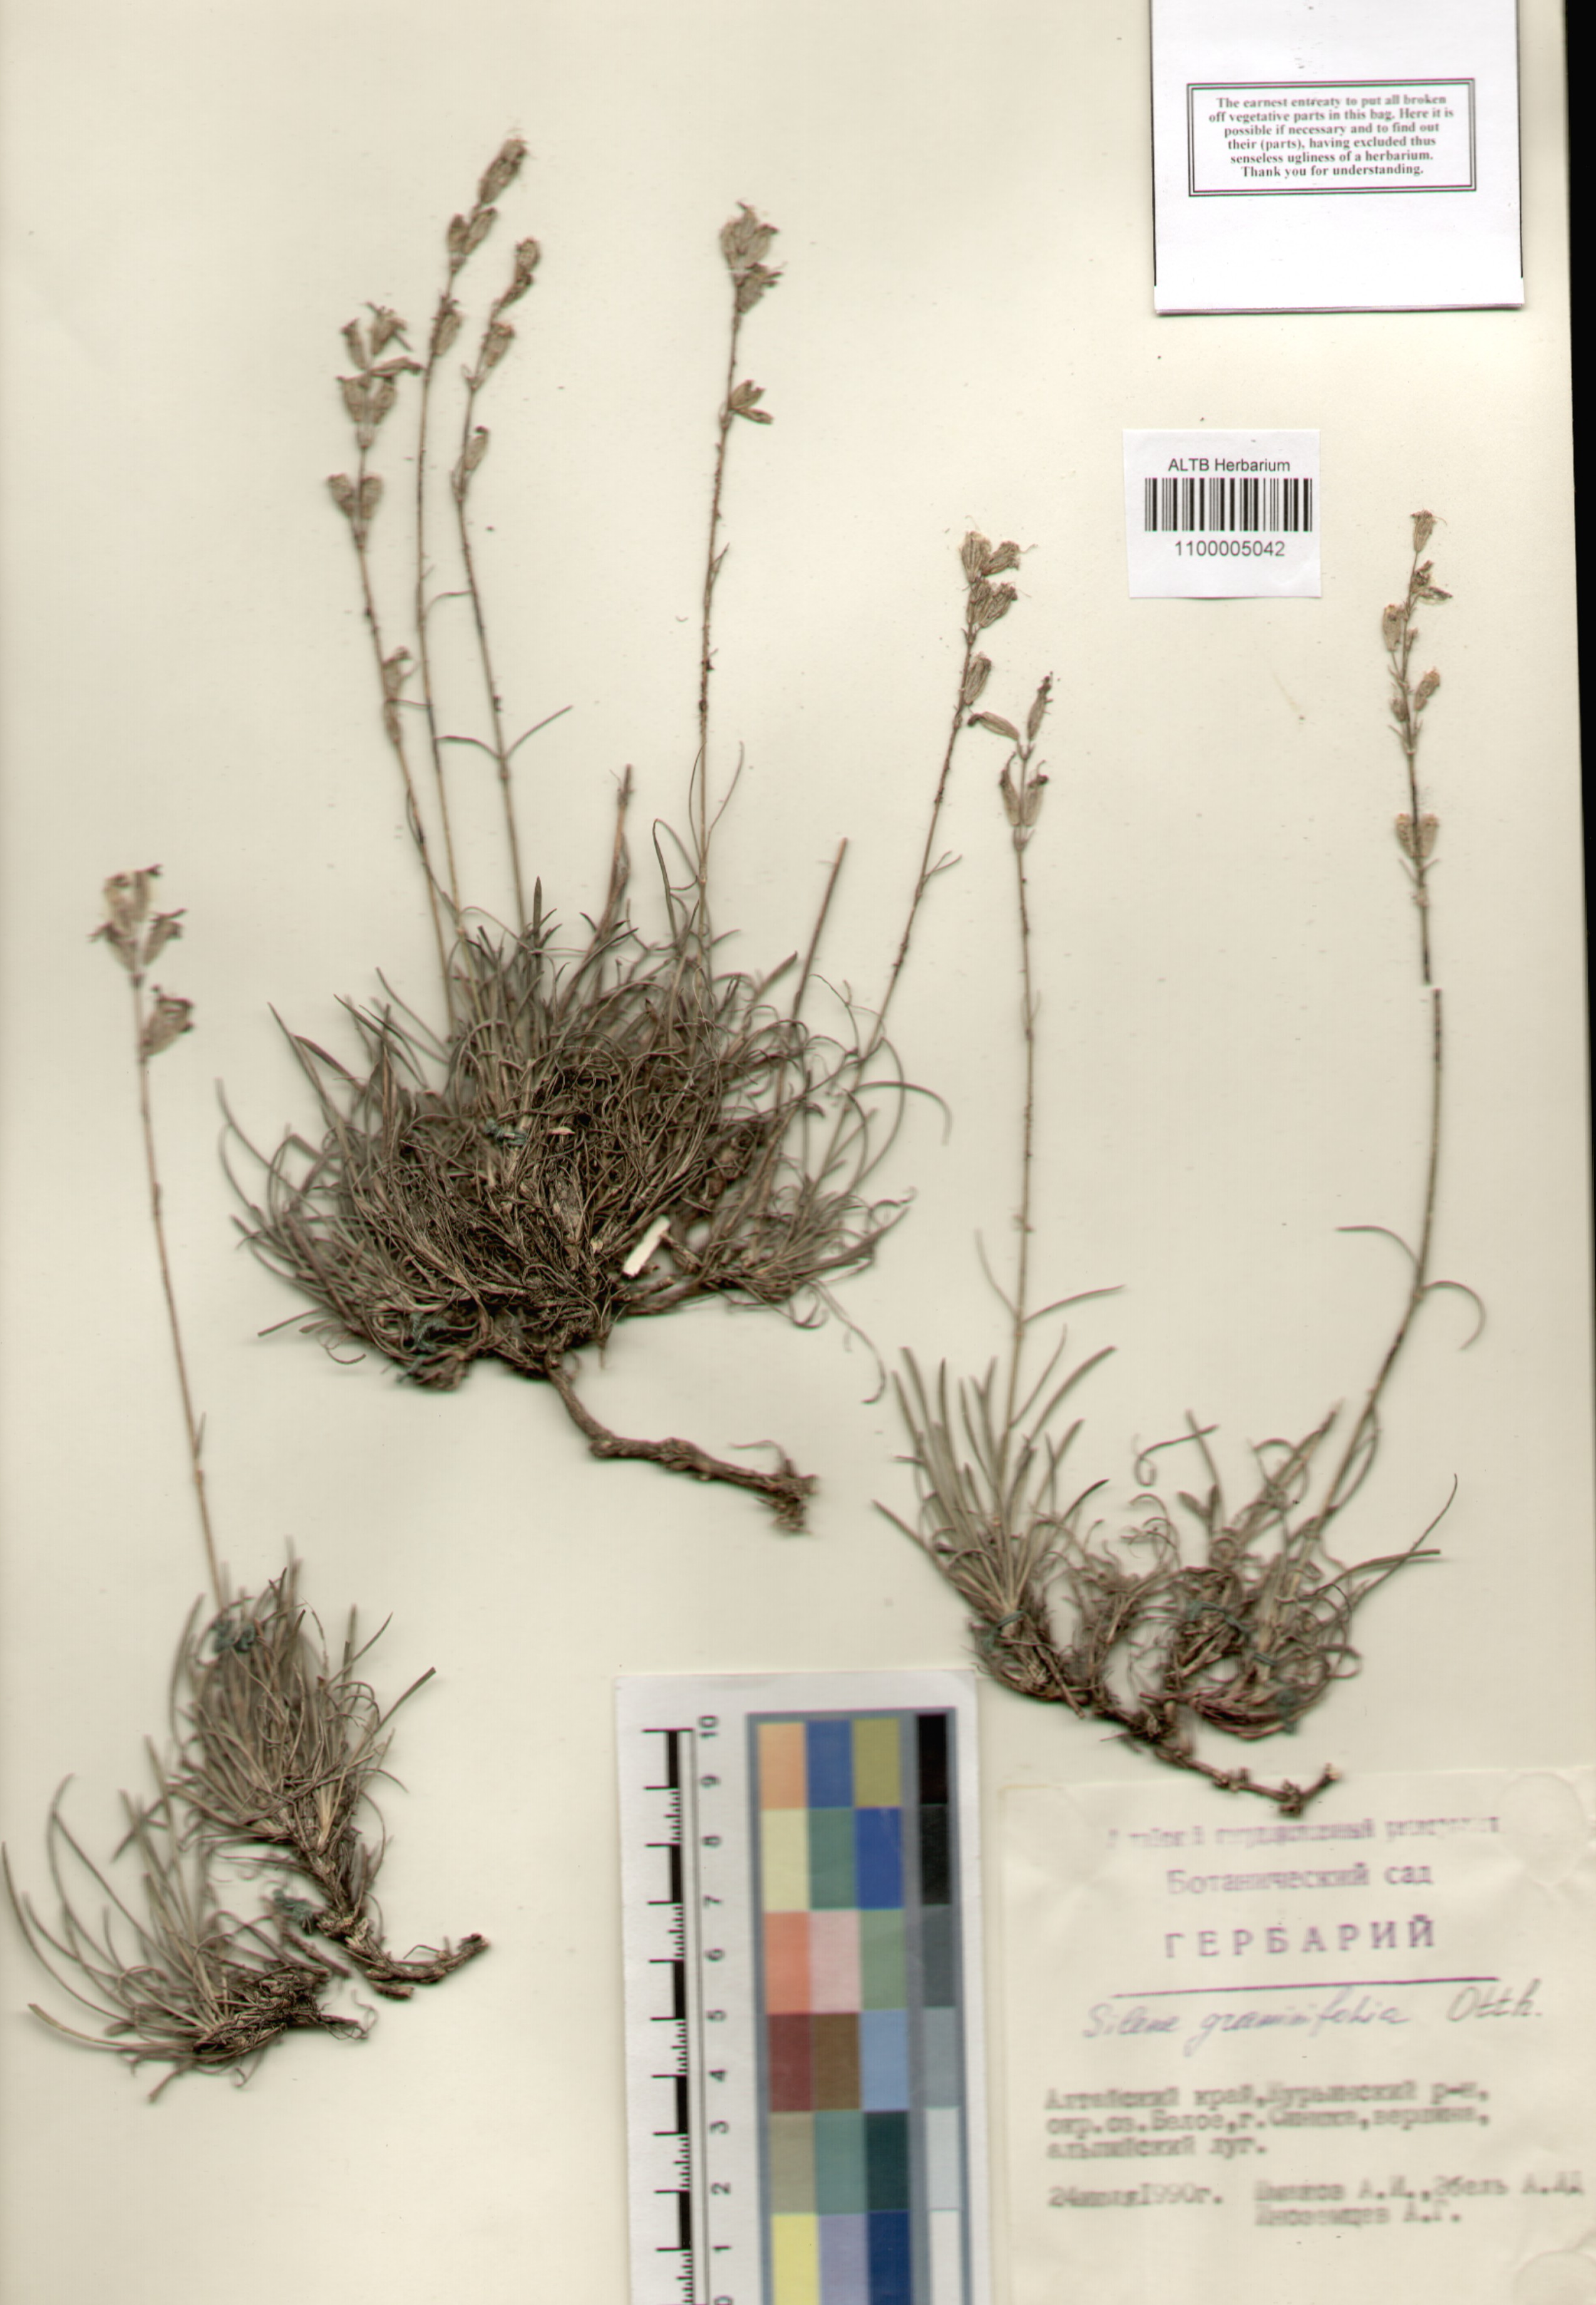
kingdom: Plantae
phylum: Tracheophyta
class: Magnoliopsida
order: Caryophyllales
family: Caryophyllaceae
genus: Silene
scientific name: Silene graminifolia
